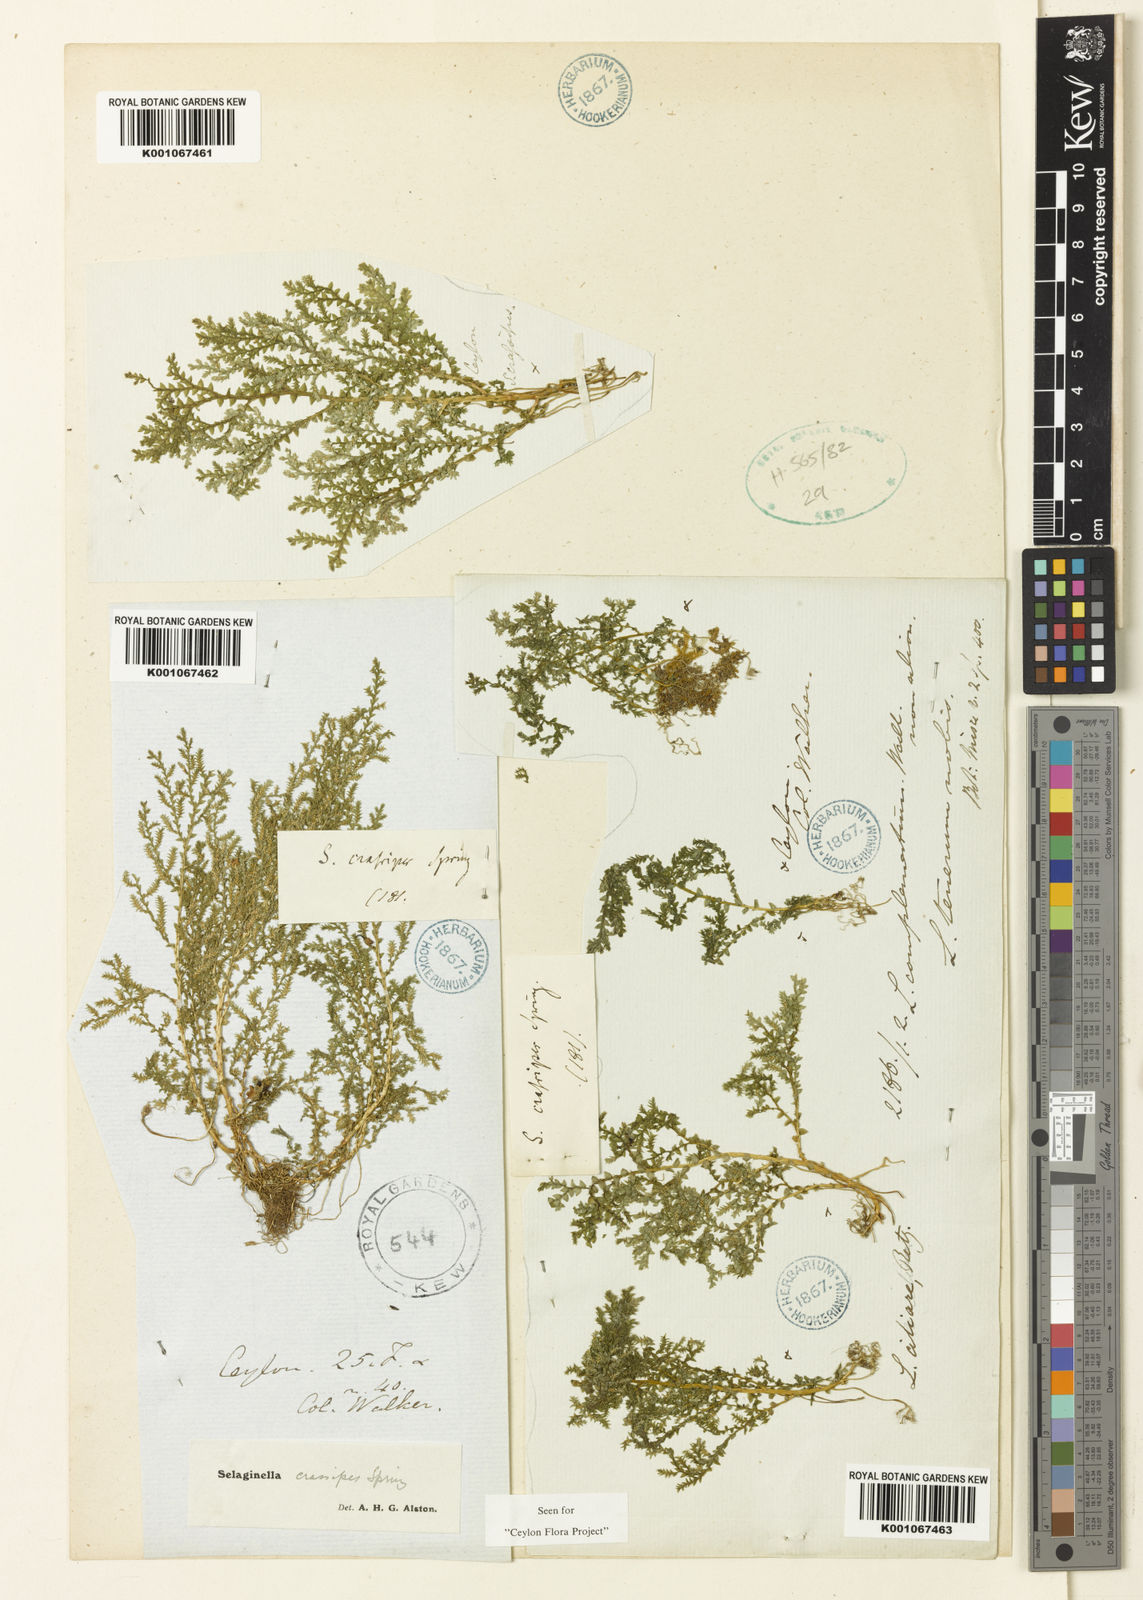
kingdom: Plantae
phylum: Tracheophyta
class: Lycopodiopsida
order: Selaginellales
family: Selaginellaceae
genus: Selaginella
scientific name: Selaginella crassipes
